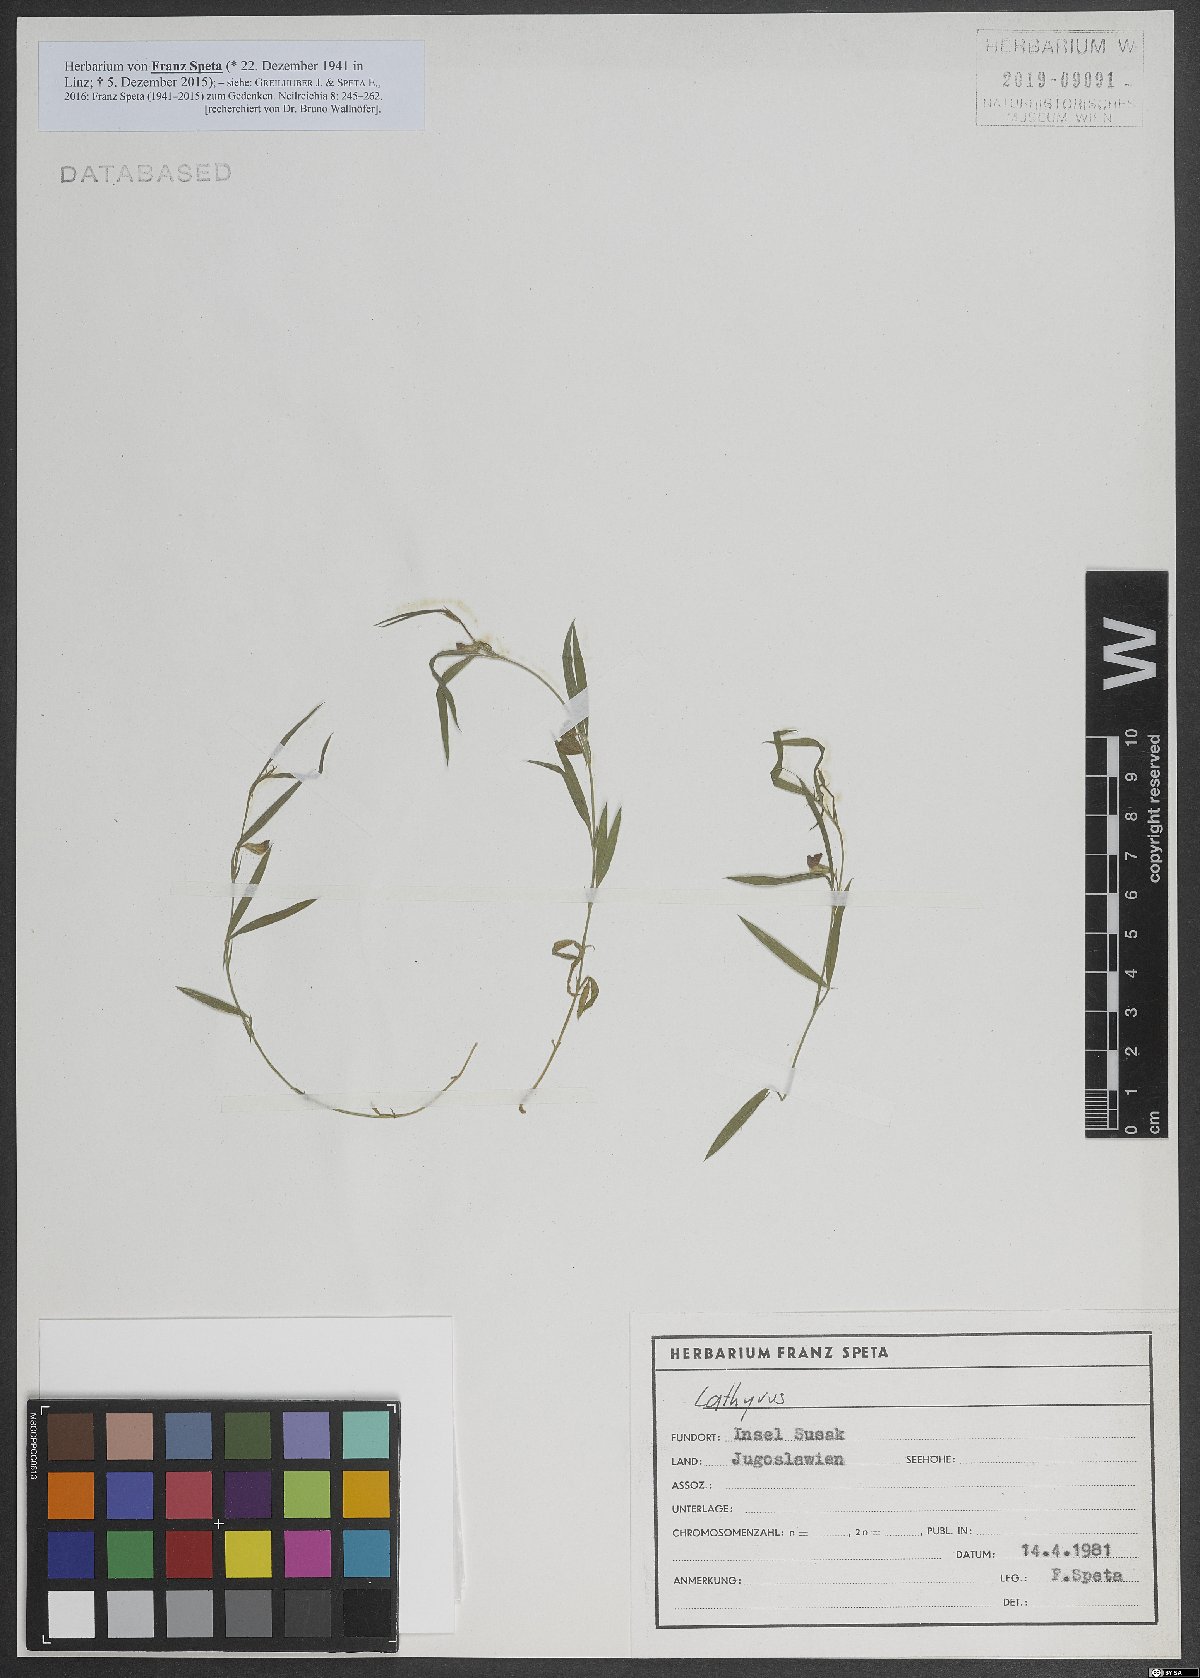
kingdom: Plantae
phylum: Tracheophyta
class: Magnoliopsida
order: Fabales
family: Fabaceae
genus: Lathyrus
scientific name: Lathyrus
